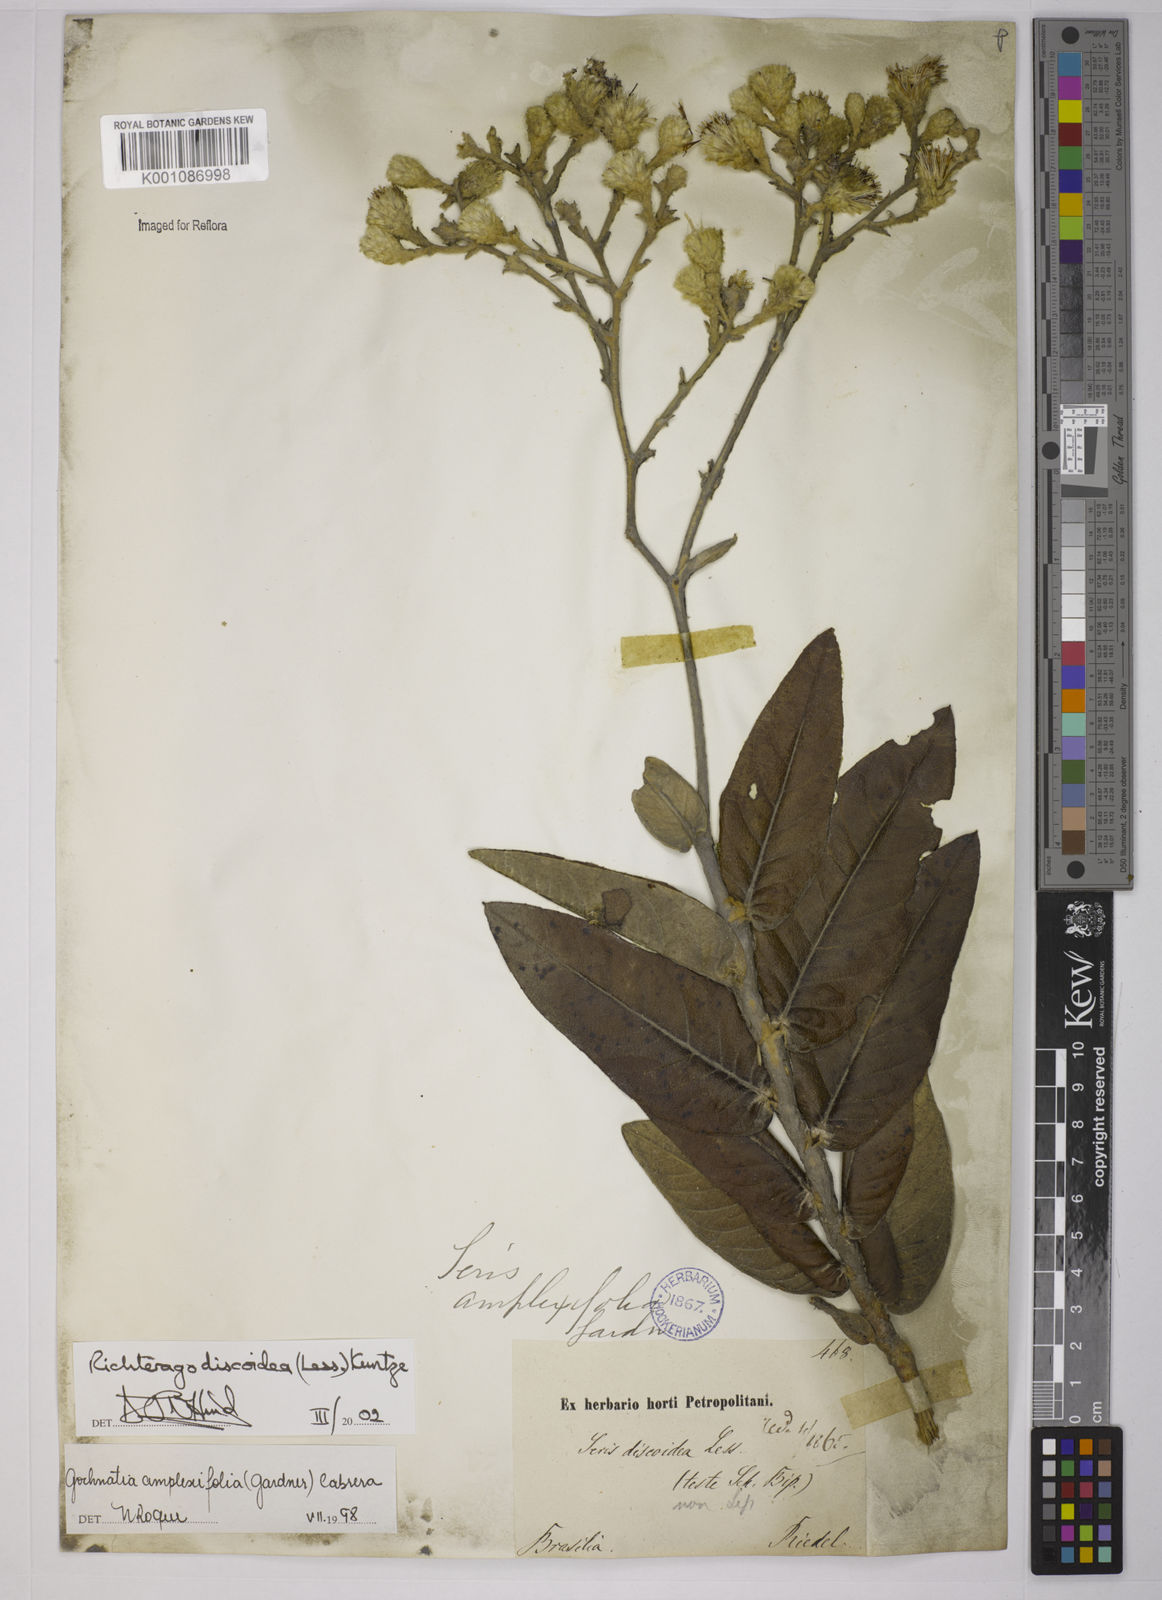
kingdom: Plantae
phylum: Tracheophyta
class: Magnoliopsida
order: Asterales
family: Asteraceae
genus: Richterago
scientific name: Richterago amplexifolia
